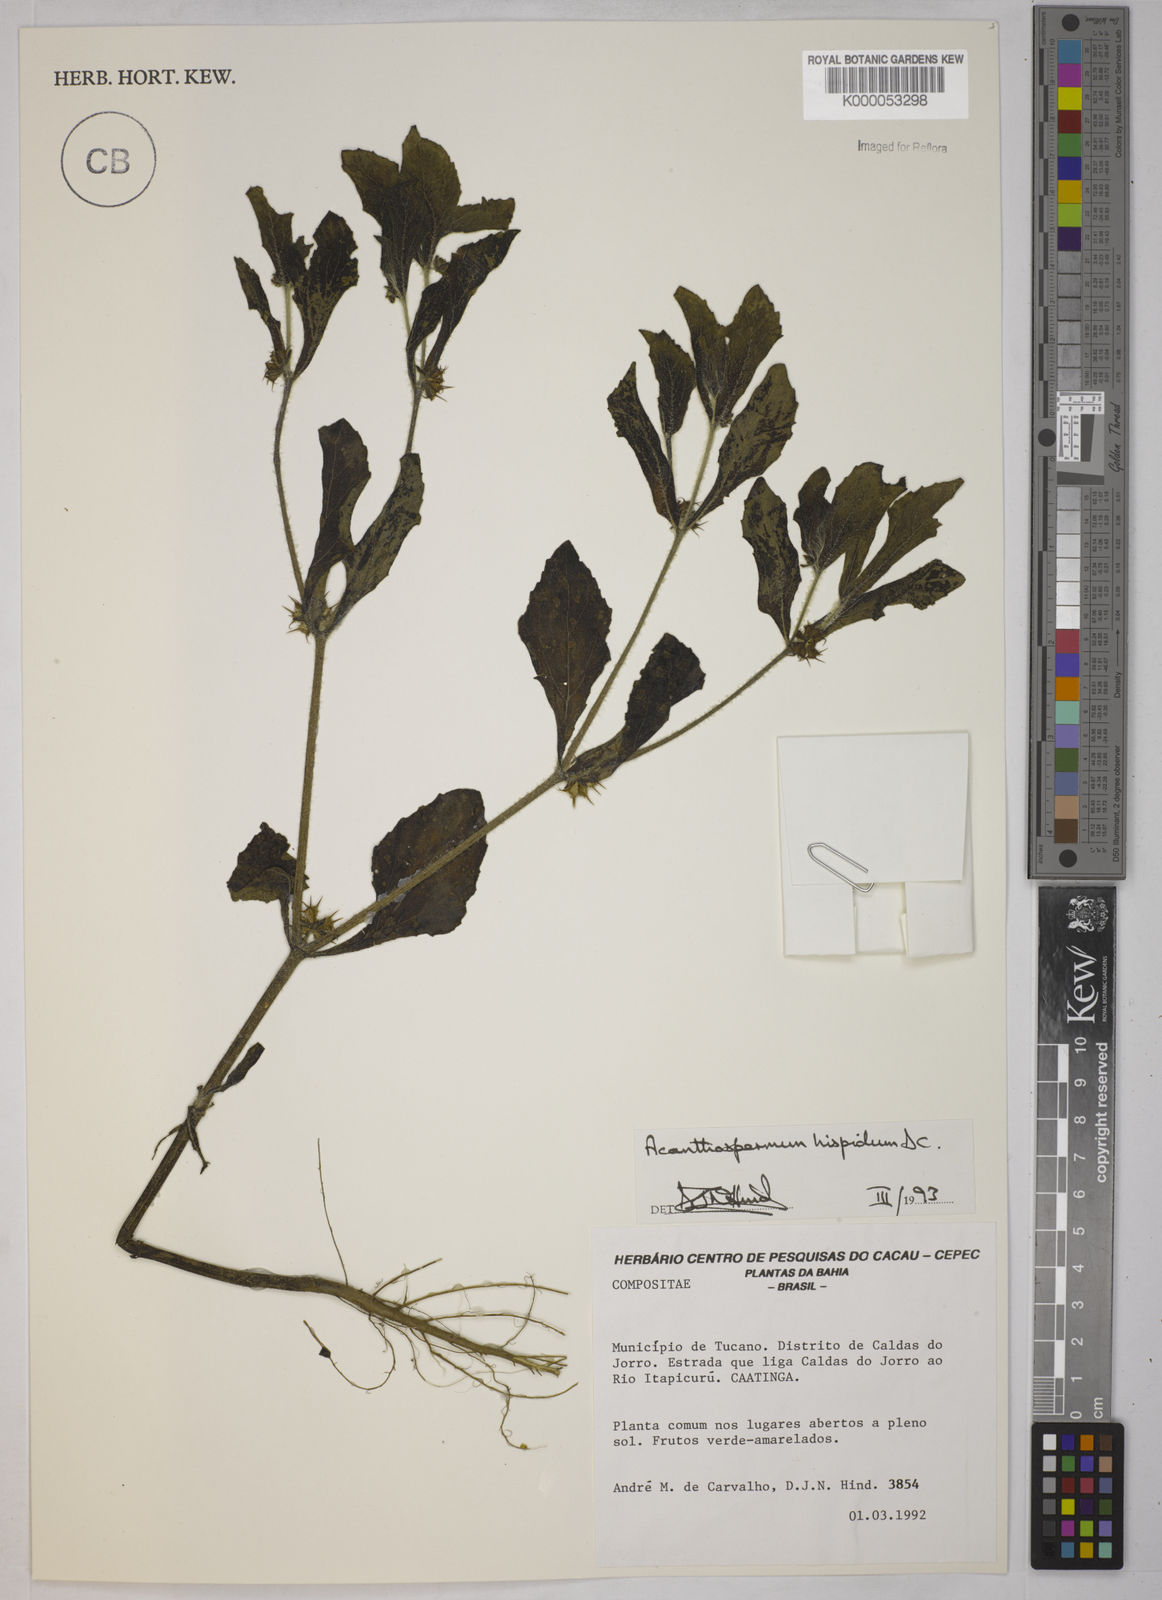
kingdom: Plantae
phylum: Tracheophyta
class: Magnoliopsida
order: Asterales
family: Asteraceae
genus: Acanthospermum
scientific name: Acanthospermum hispidum
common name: Hispid starbur
